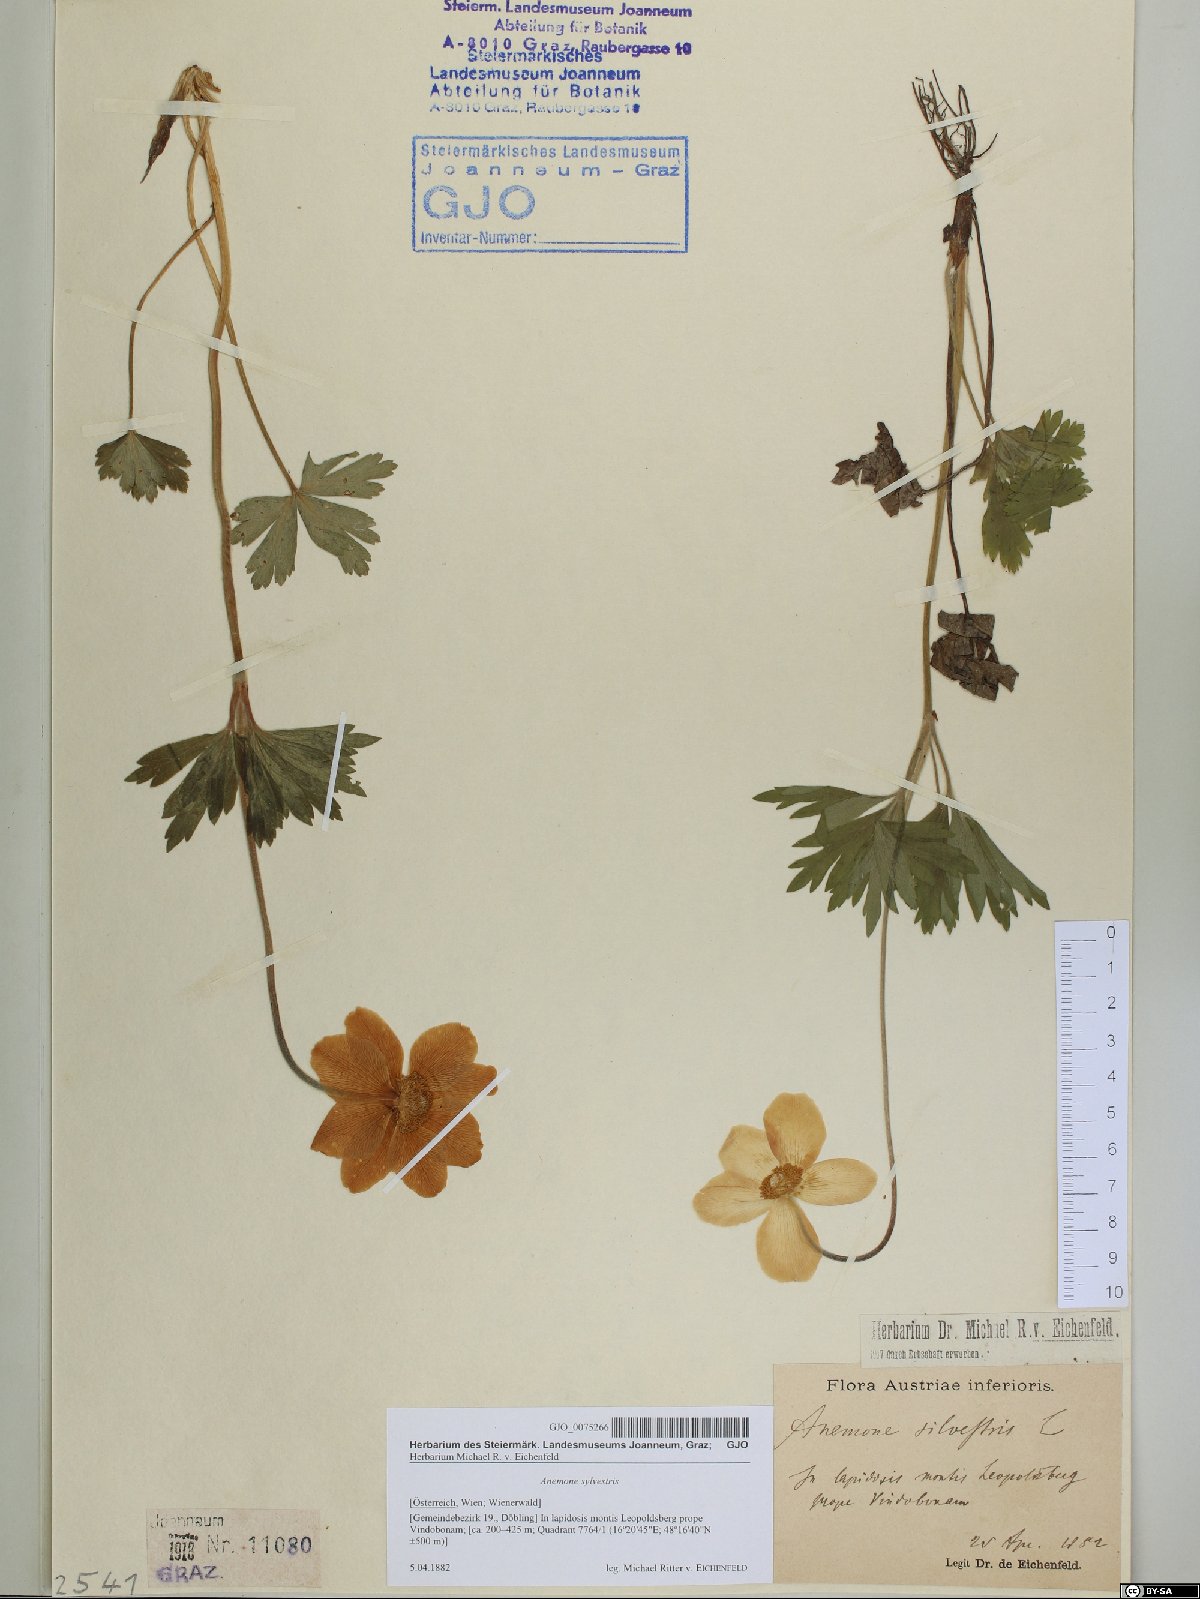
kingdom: Plantae
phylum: Tracheophyta
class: Magnoliopsida
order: Ranunculales
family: Ranunculaceae
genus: Anemone
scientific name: Anemone sylvestris
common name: Snowdrop anemone
